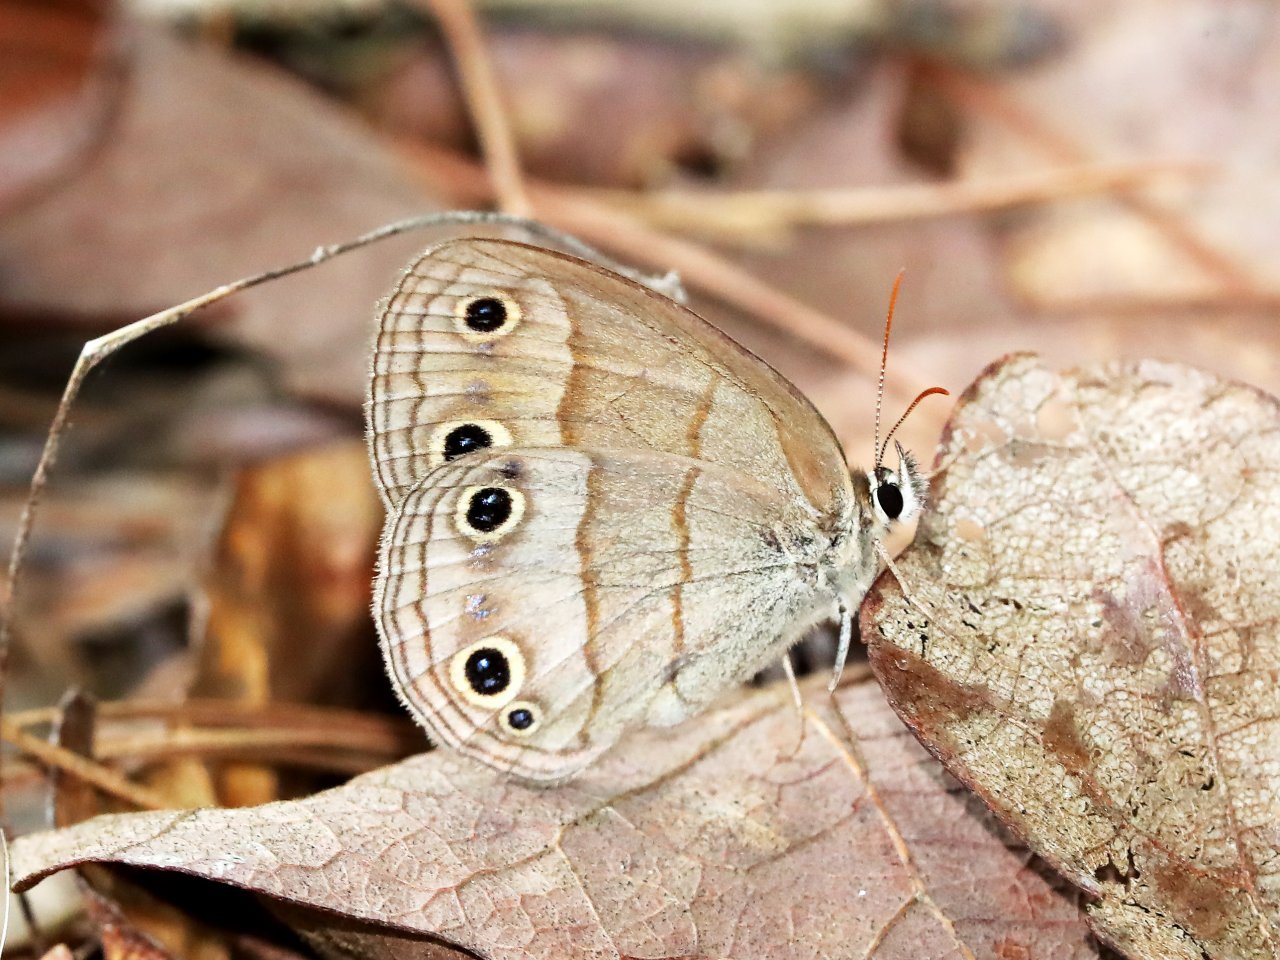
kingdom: Animalia
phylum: Arthropoda
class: Insecta
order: Lepidoptera
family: Nymphalidae
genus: Euptychia
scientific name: Euptychia cymela
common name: Little Wood Satyr
